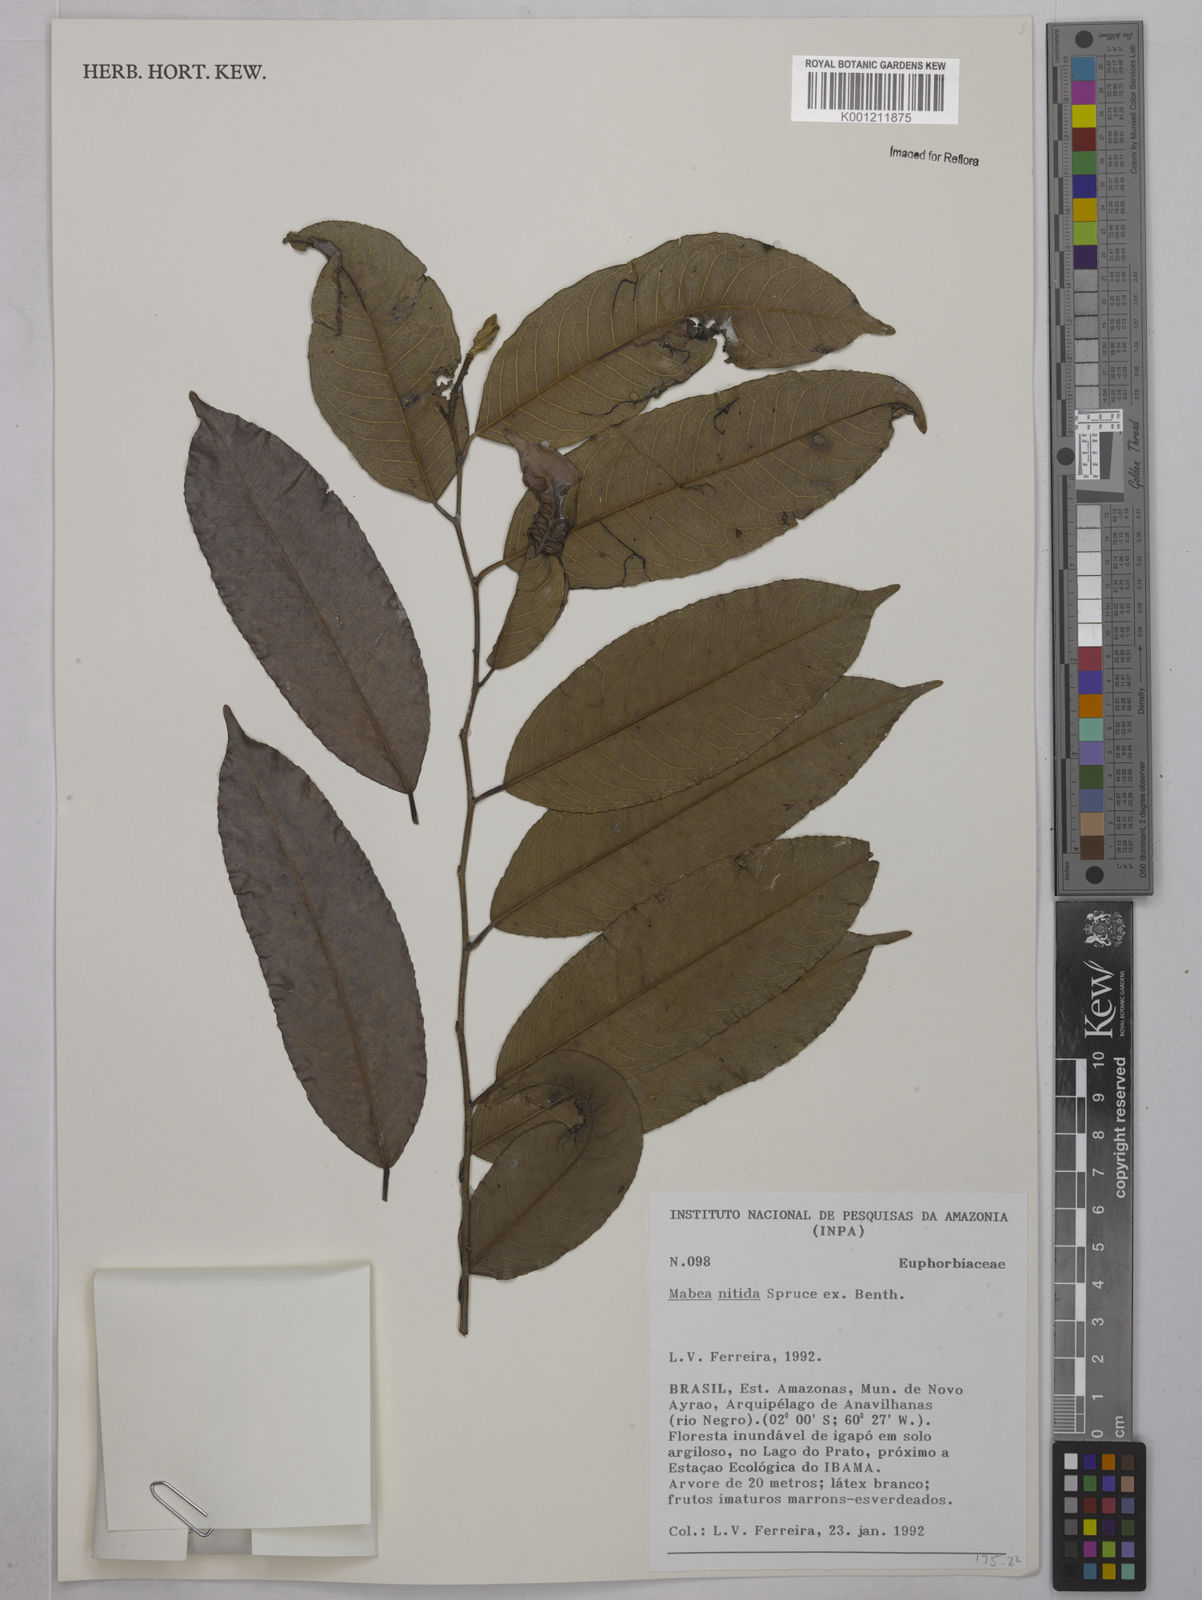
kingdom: Plantae
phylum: Tracheophyta
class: Magnoliopsida
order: Malpighiales
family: Euphorbiaceae
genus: Mabea
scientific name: Mabea nitida
